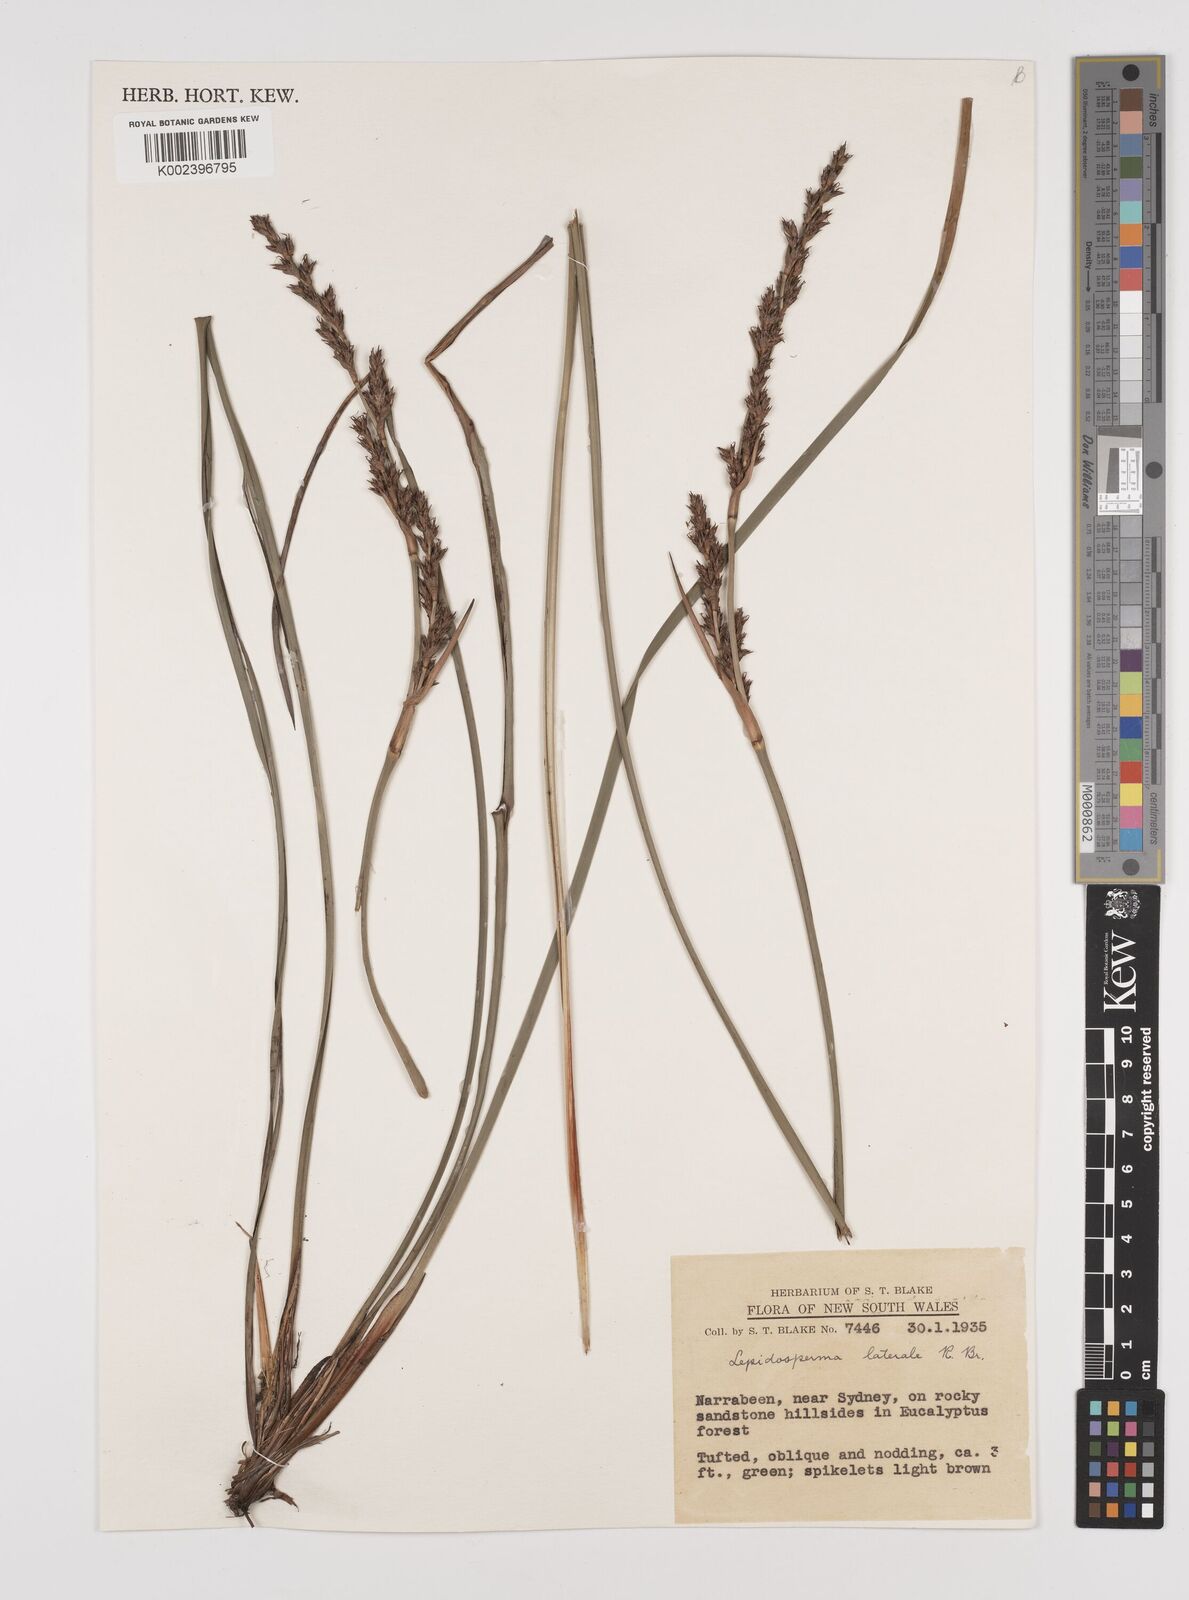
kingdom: Plantae
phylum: Tracheophyta
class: Liliopsida
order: Poales
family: Cyperaceae
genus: Lepidosperma
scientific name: Lepidosperma laterale
